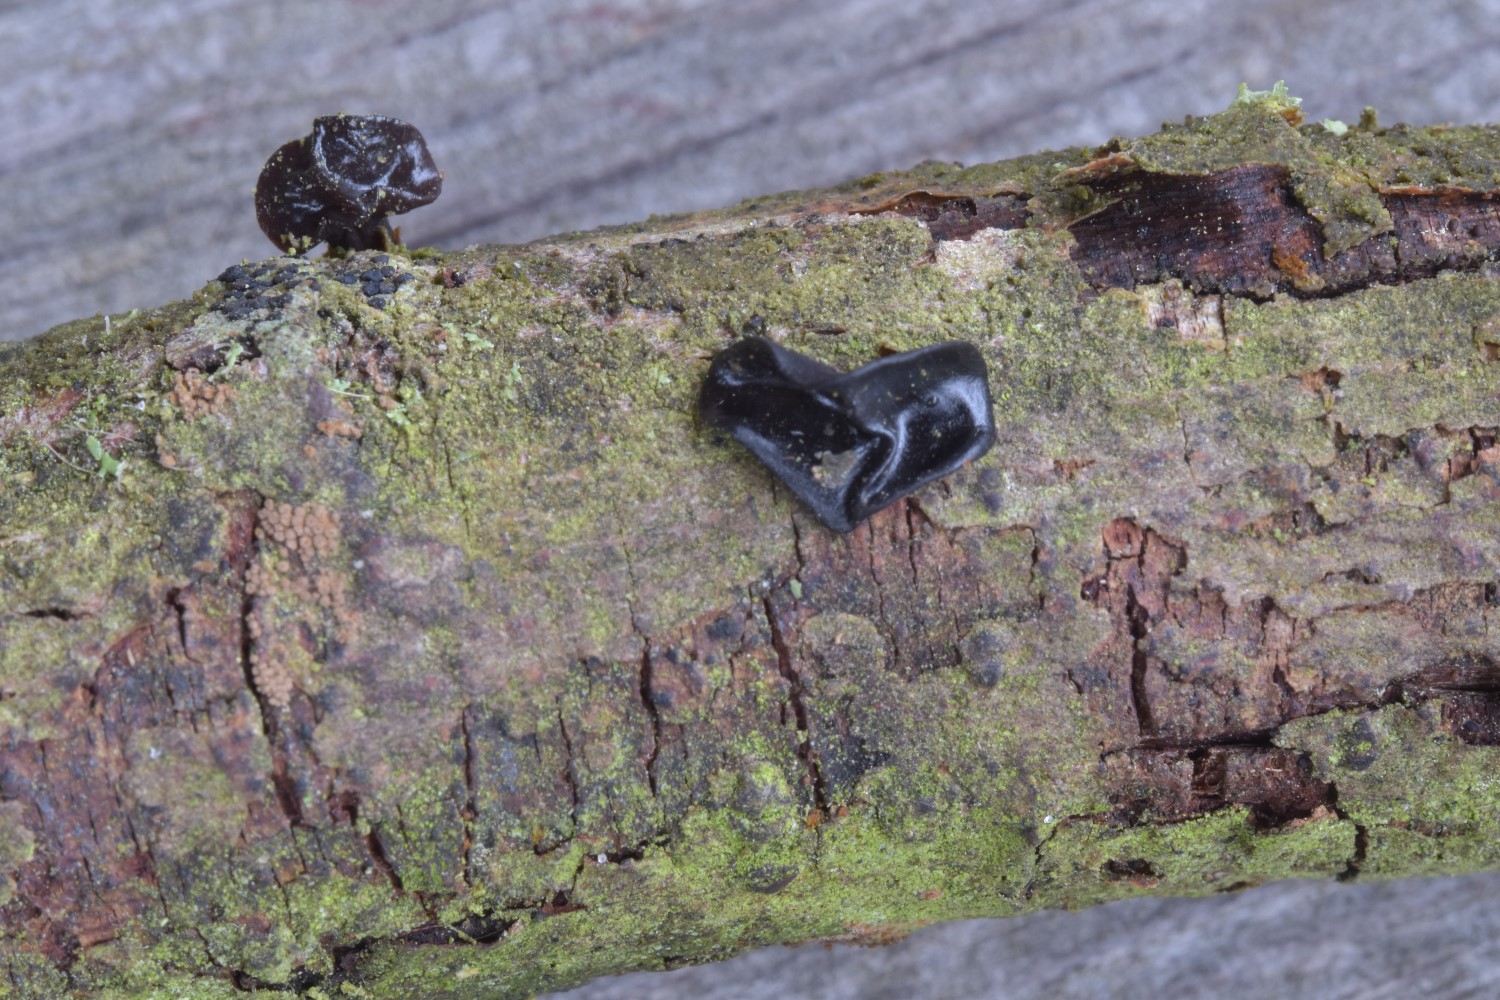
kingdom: Fungi
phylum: Basidiomycota
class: Agaricomycetes
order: Auriculariales
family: Auriculariaceae
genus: Exidia
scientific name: Exidia recisa
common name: pile-bævretop
